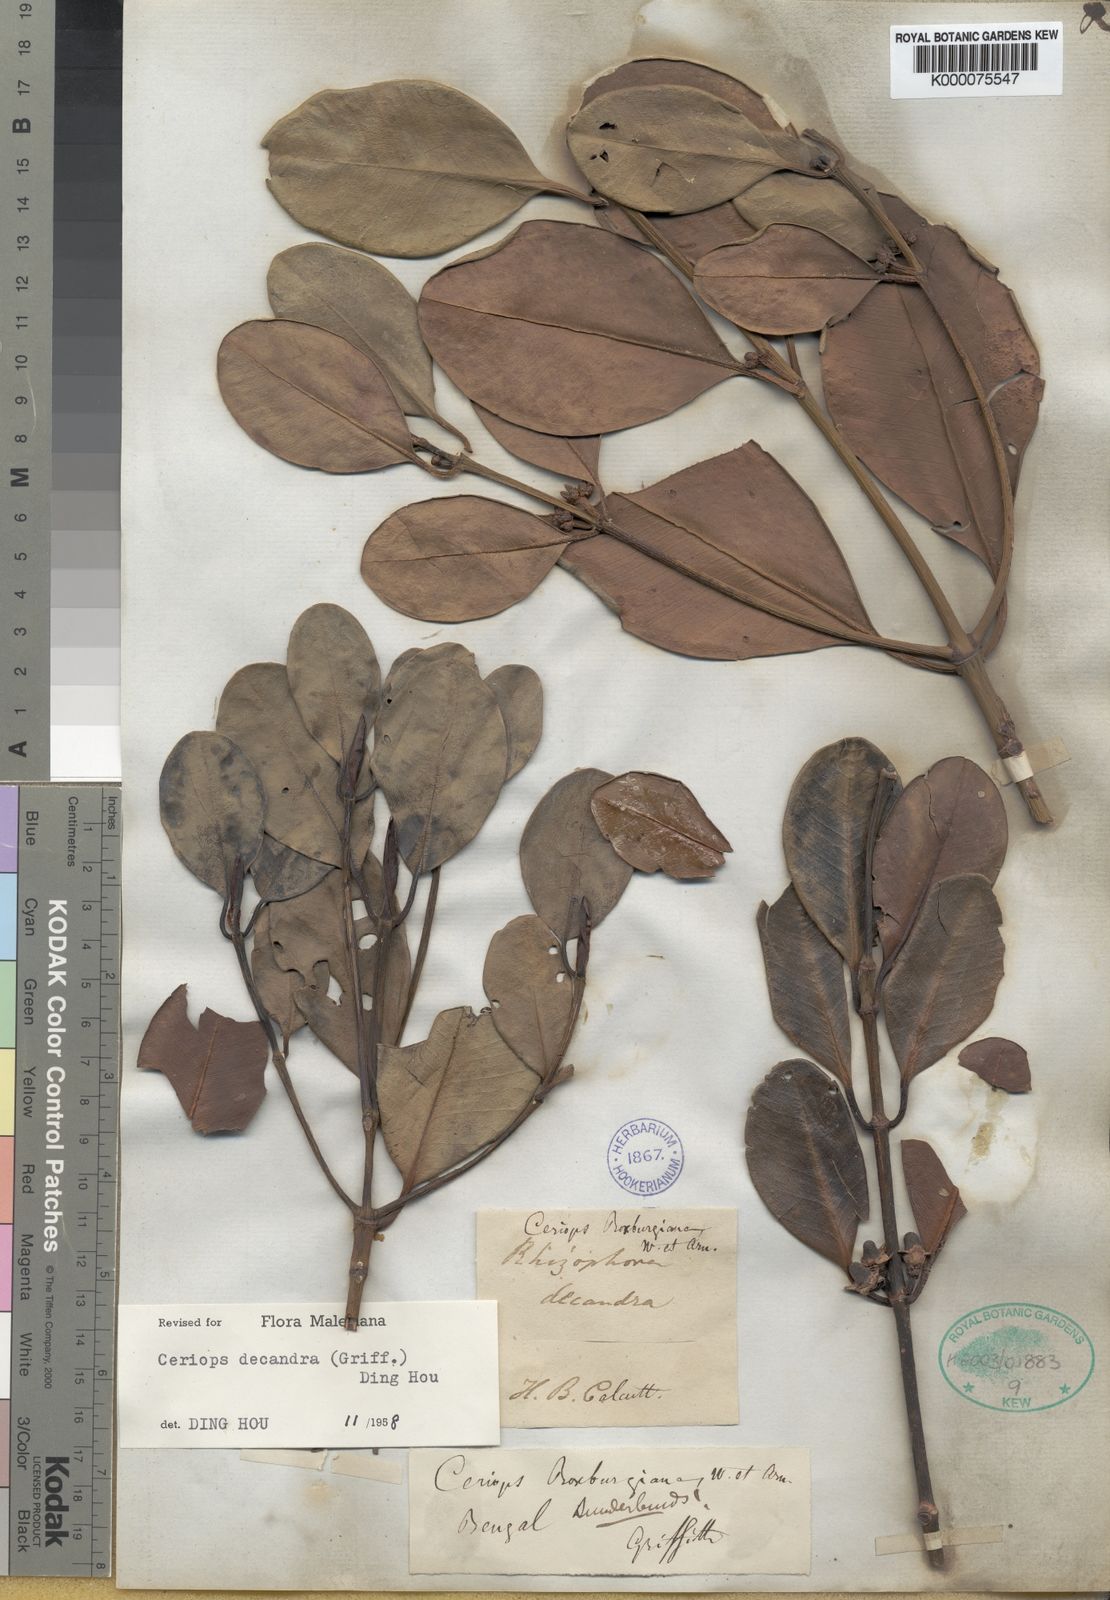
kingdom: Plantae
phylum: Tracheophyta
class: Magnoliopsida
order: Malpighiales
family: Rhizophoraceae
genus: Ceriops
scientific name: Ceriops
